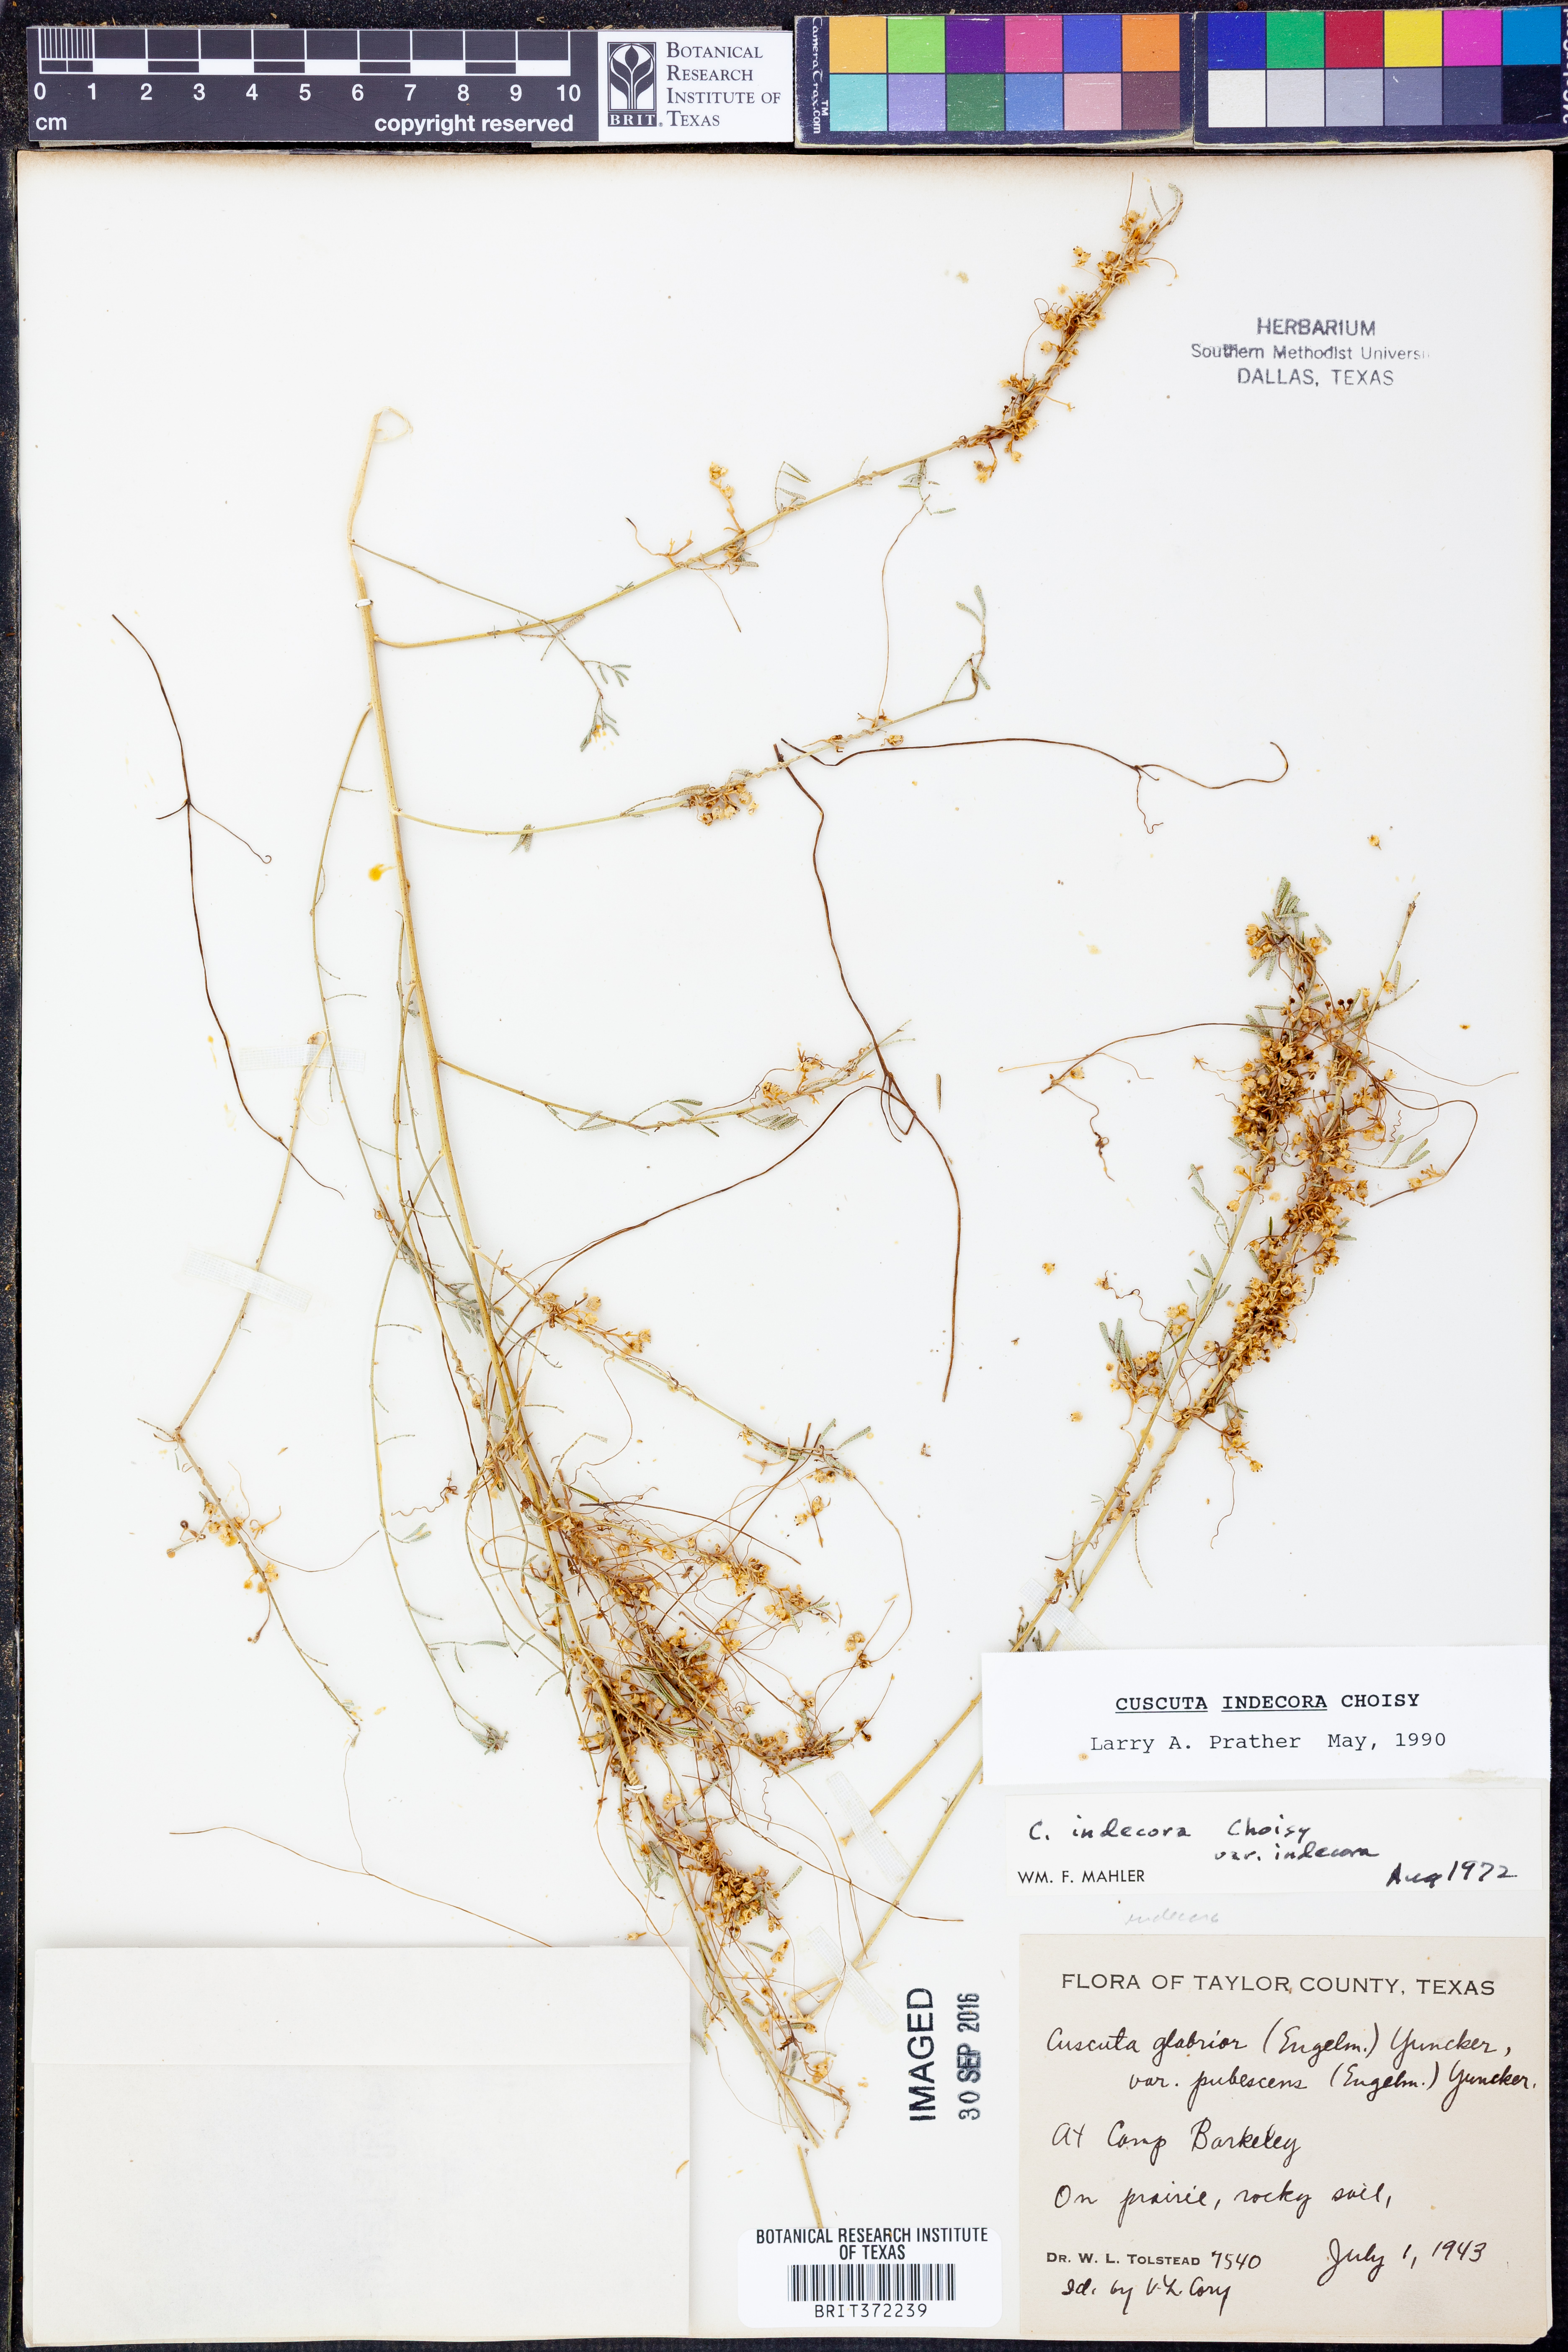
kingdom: Plantae
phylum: Tracheophyta
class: Magnoliopsida
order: Solanales
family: Convolvulaceae
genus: Cuscuta
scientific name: Cuscuta indecora
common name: Large-seed dodder
